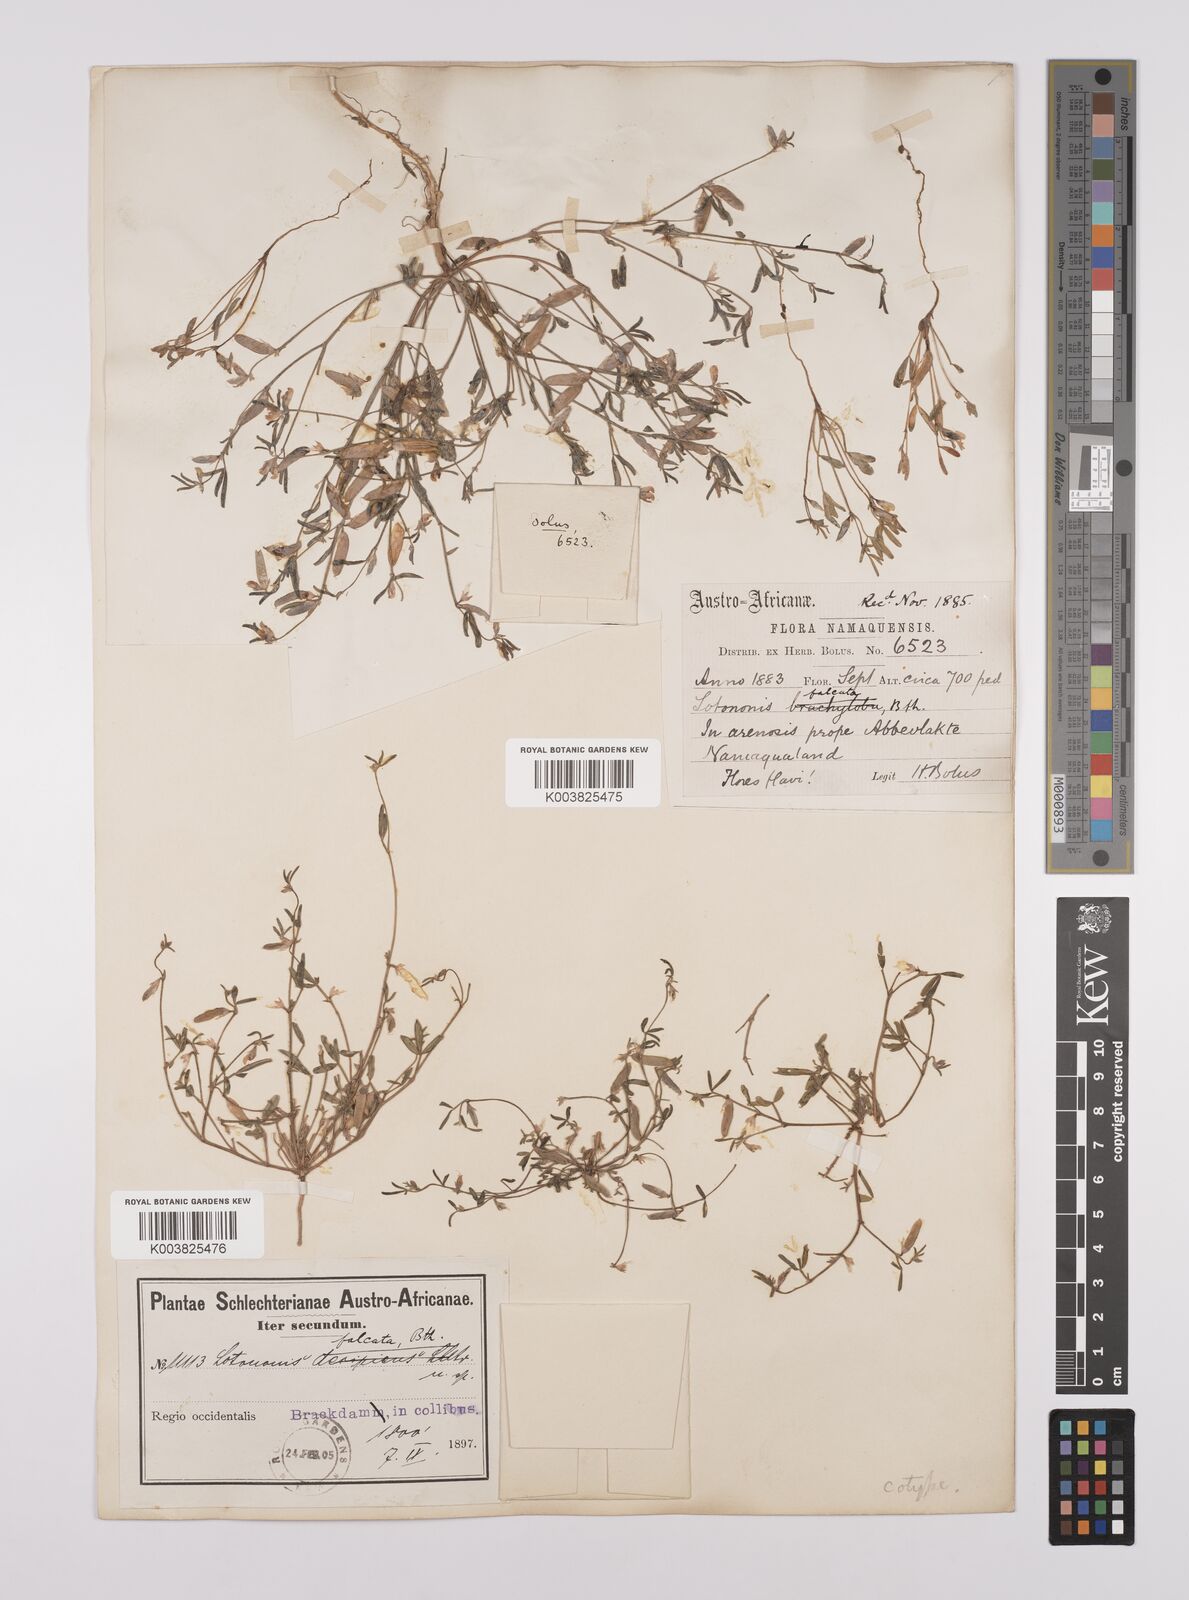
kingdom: Plantae
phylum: Tracheophyta
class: Magnoliopsida
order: Fabales
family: Fabaceae
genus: Lotononis
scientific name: Lotononis falcata
